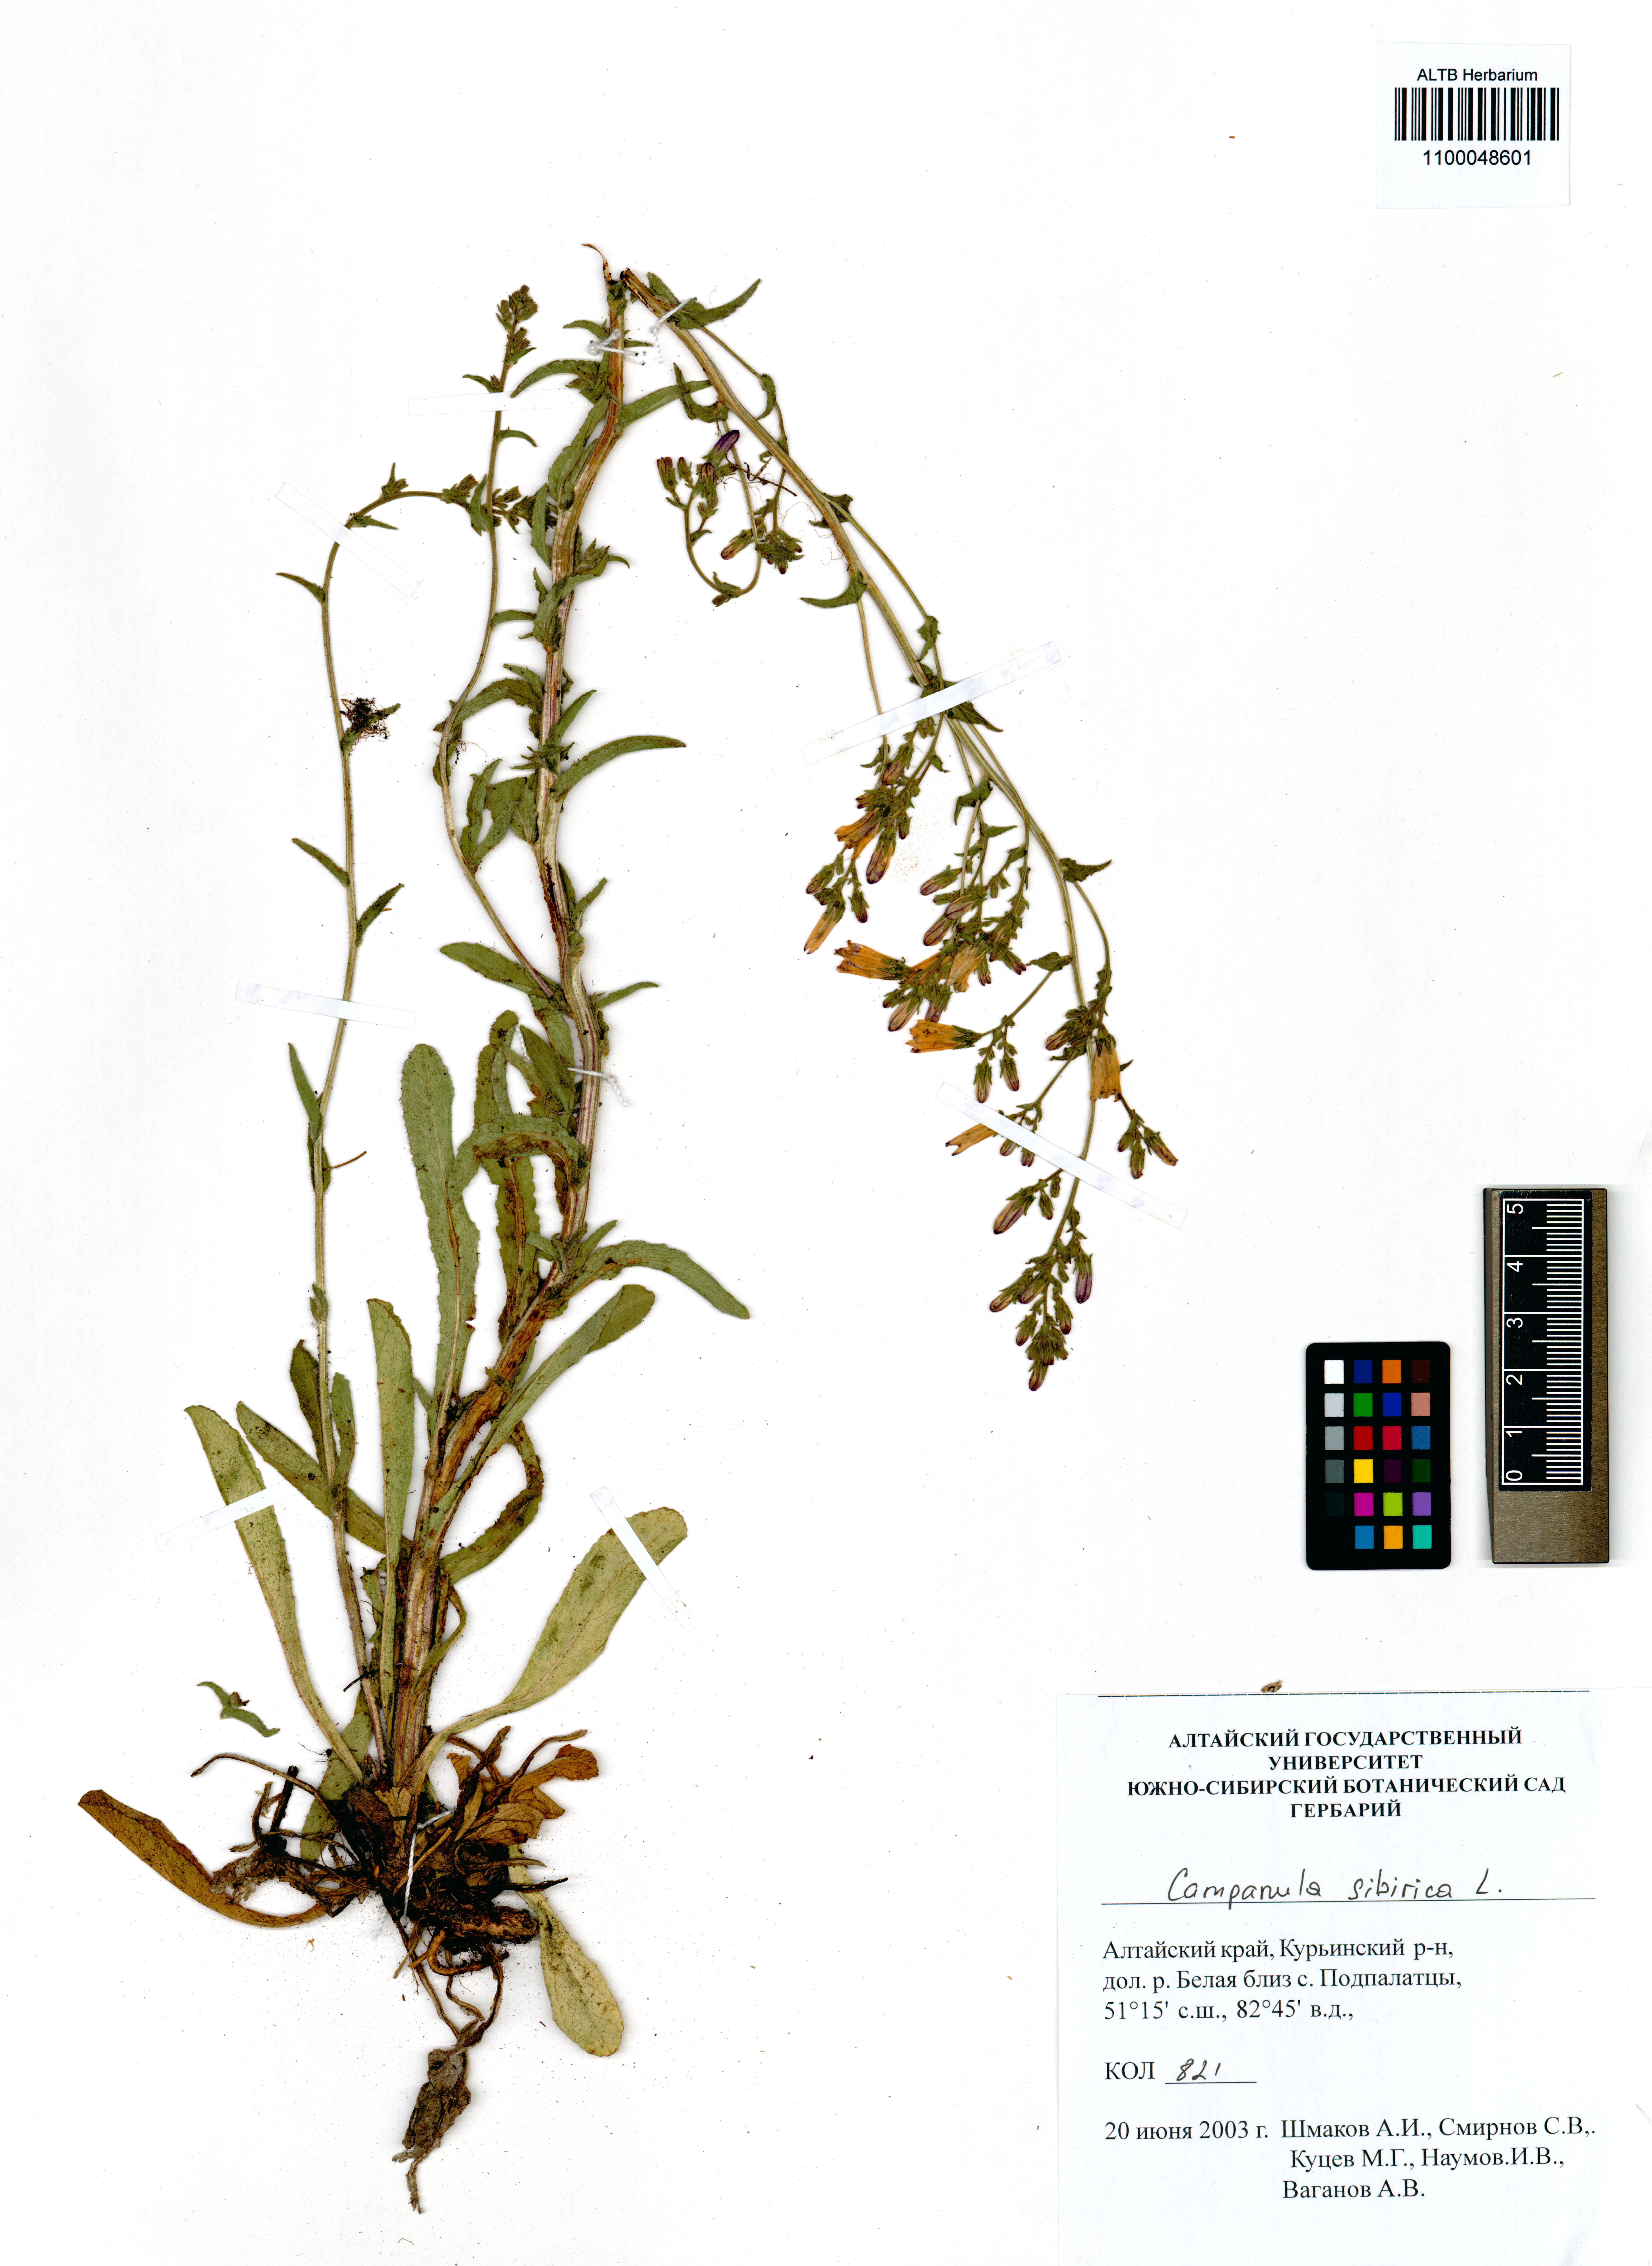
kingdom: Plantae
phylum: Tracheophyta
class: Magnoliopsida
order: Asterales
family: Campanulaceae
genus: Campanula
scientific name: Campanula sibirica
